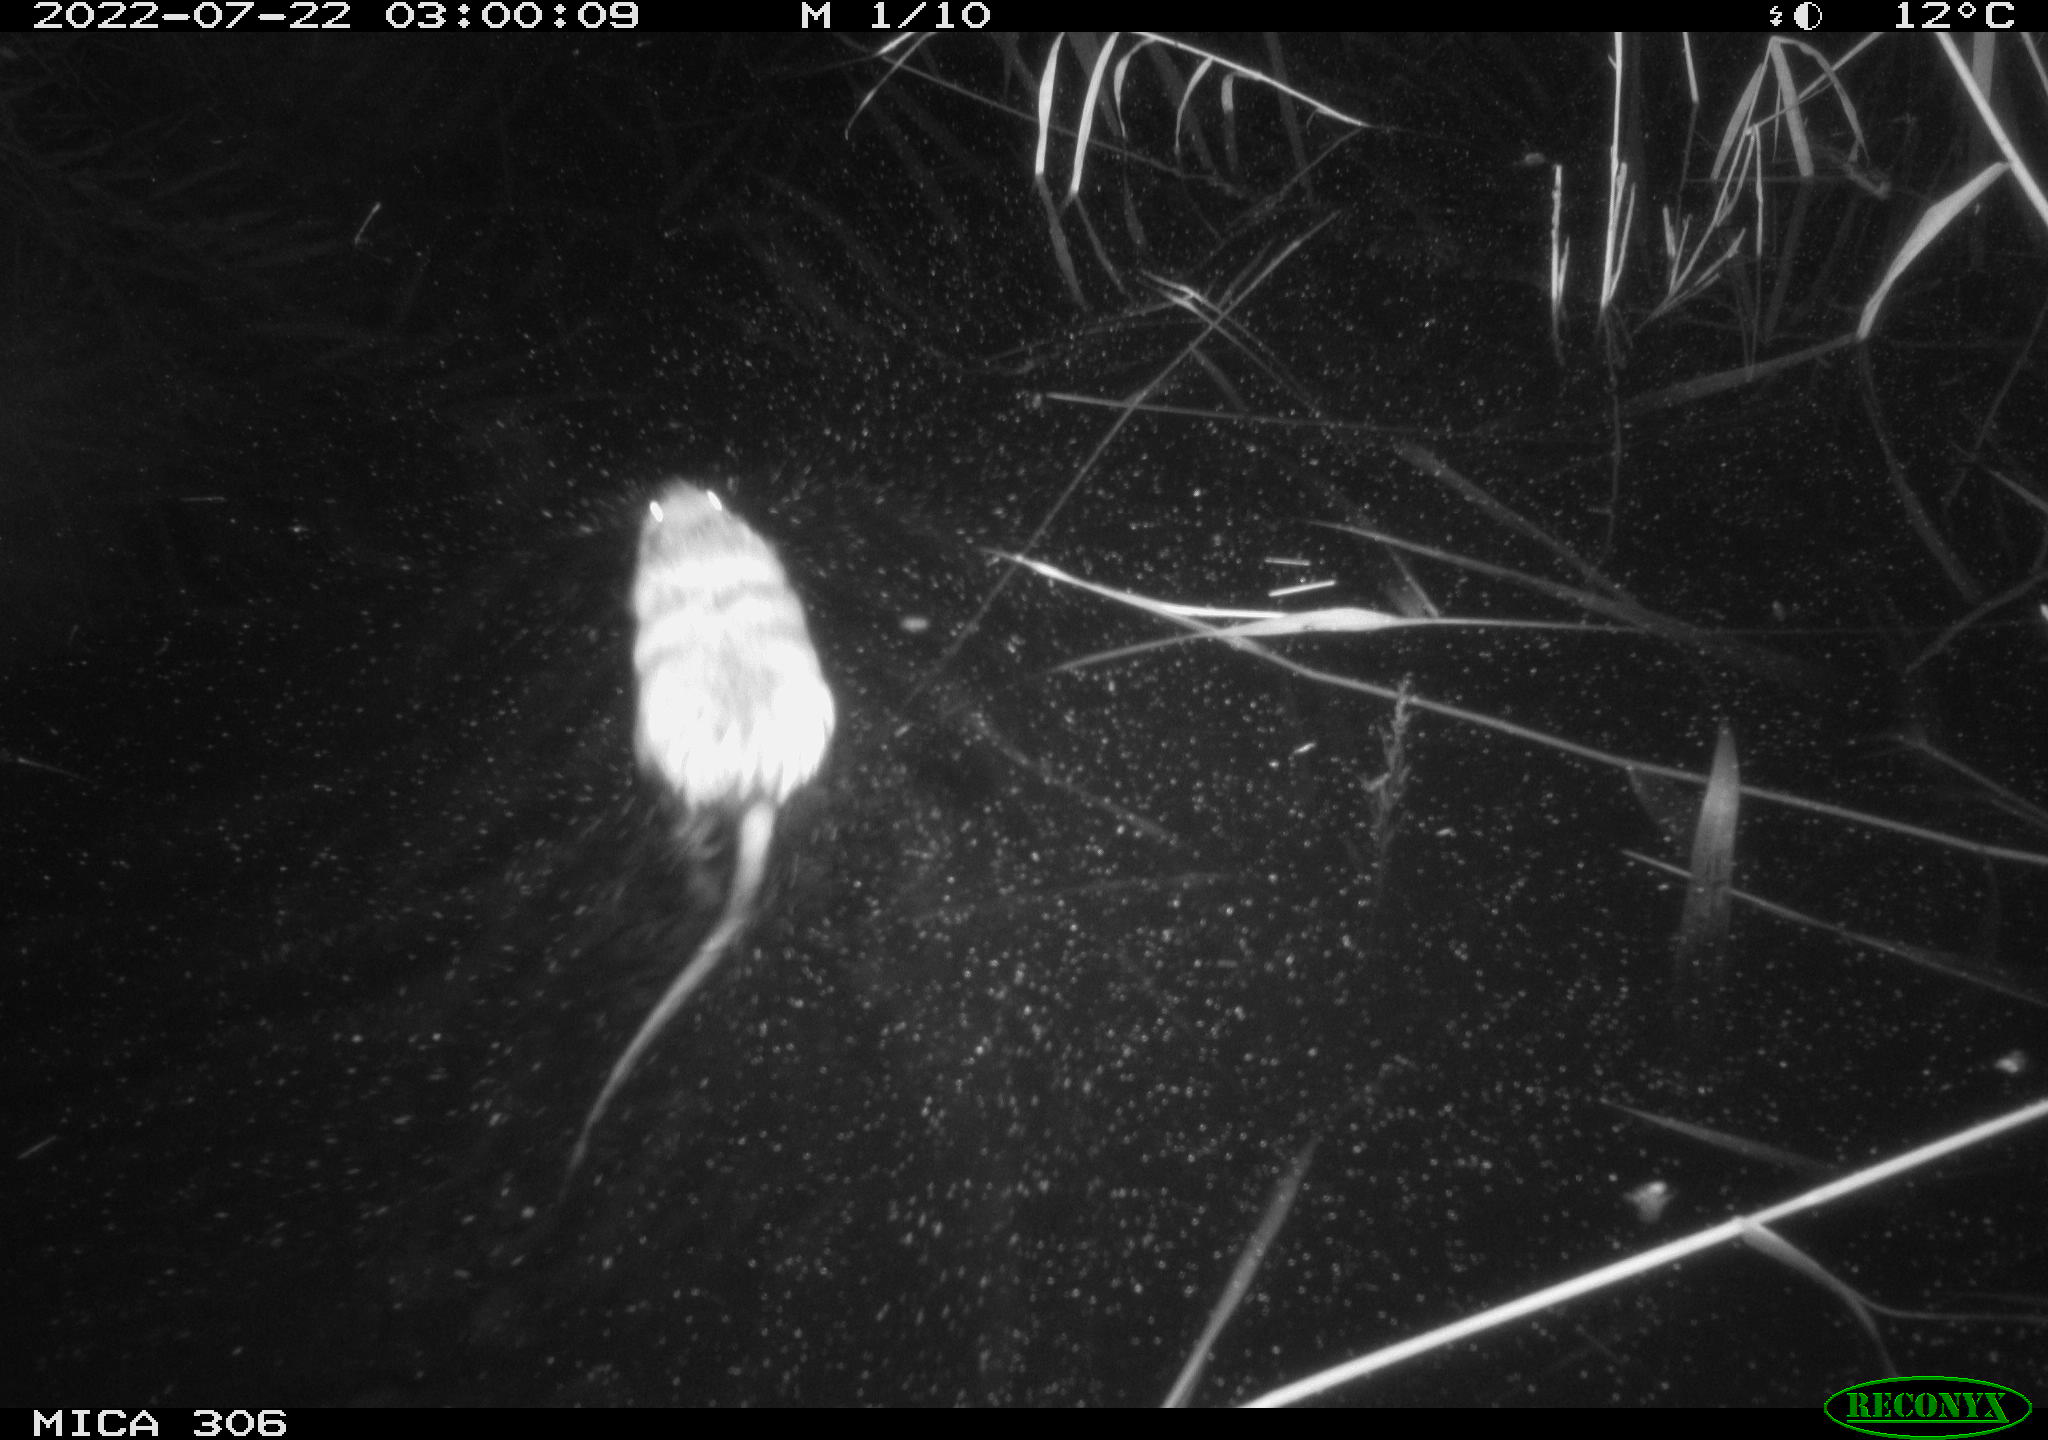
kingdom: Animalia
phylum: Chordata
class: Mammalia
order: Rodentia
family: Cricetidae
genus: Ondatra
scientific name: Ondatra zibethicus
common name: Muskrat
